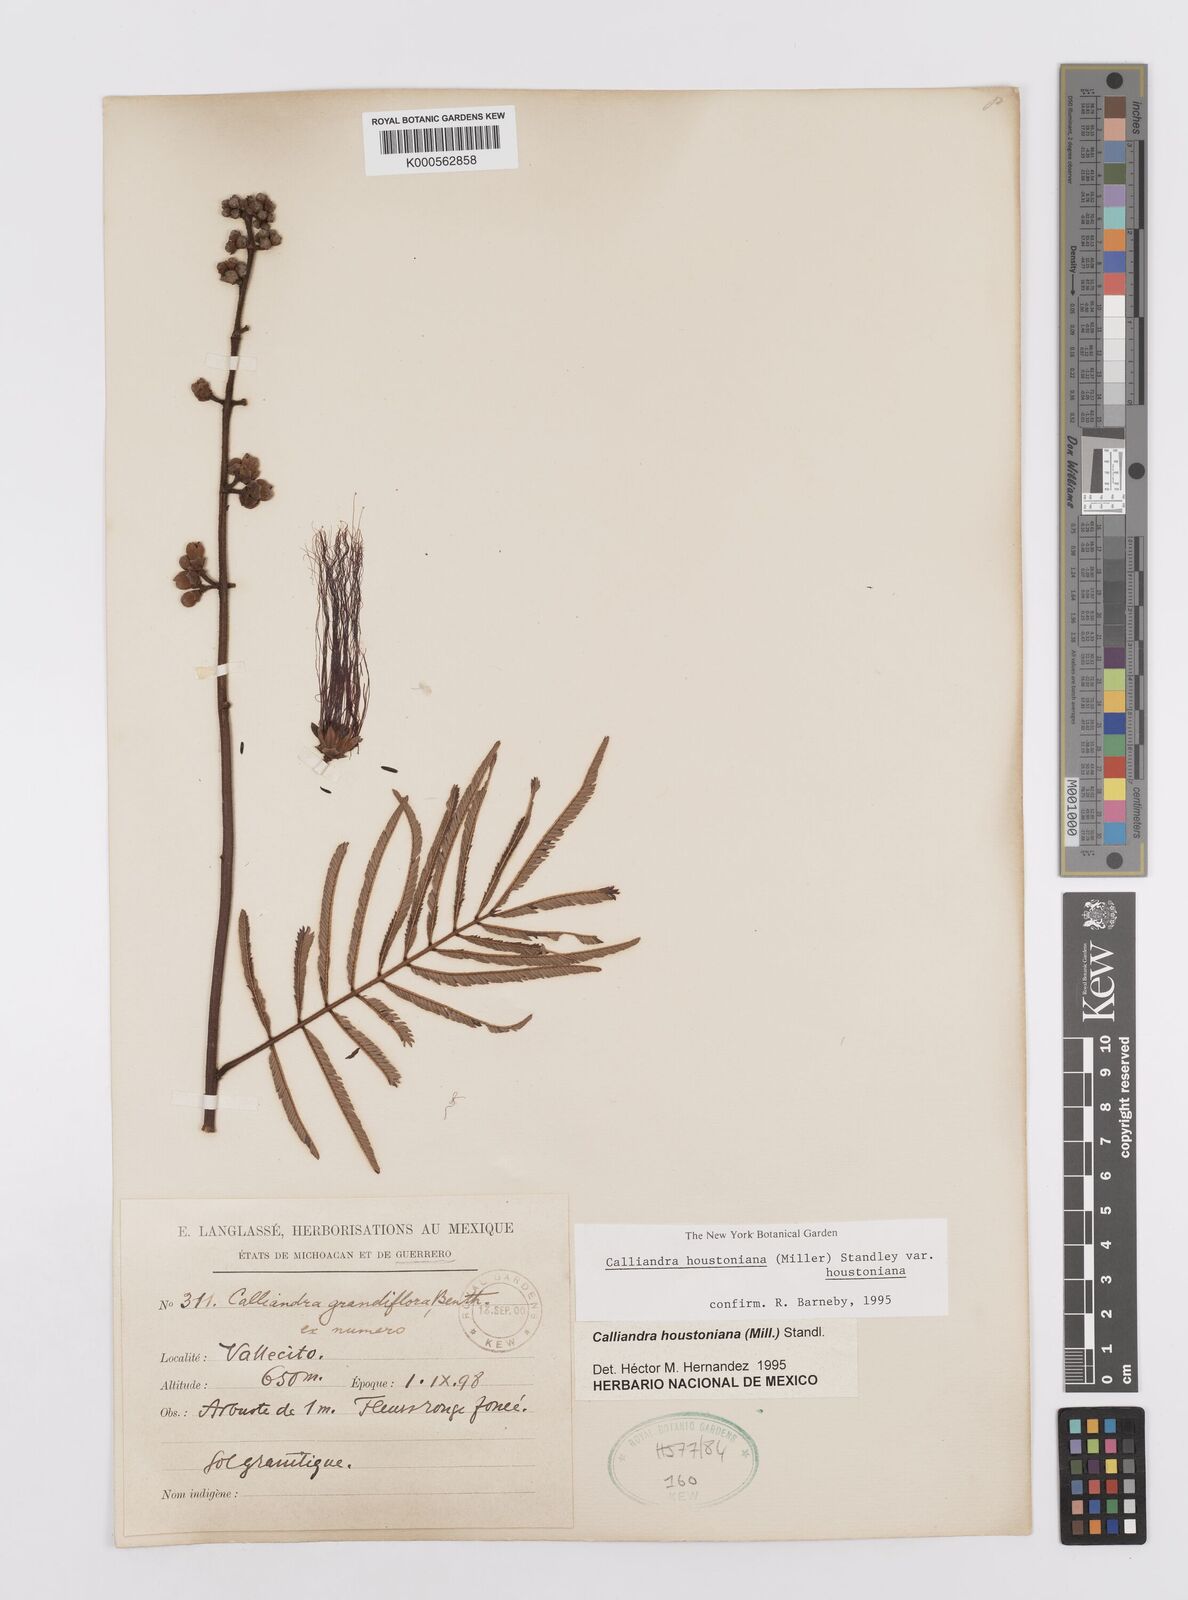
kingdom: Plantae
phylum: Tracheophyta
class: Magnoliopsida
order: Fabales
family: Fabaceae
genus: Calliandra
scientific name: Calliandra houstoniana
